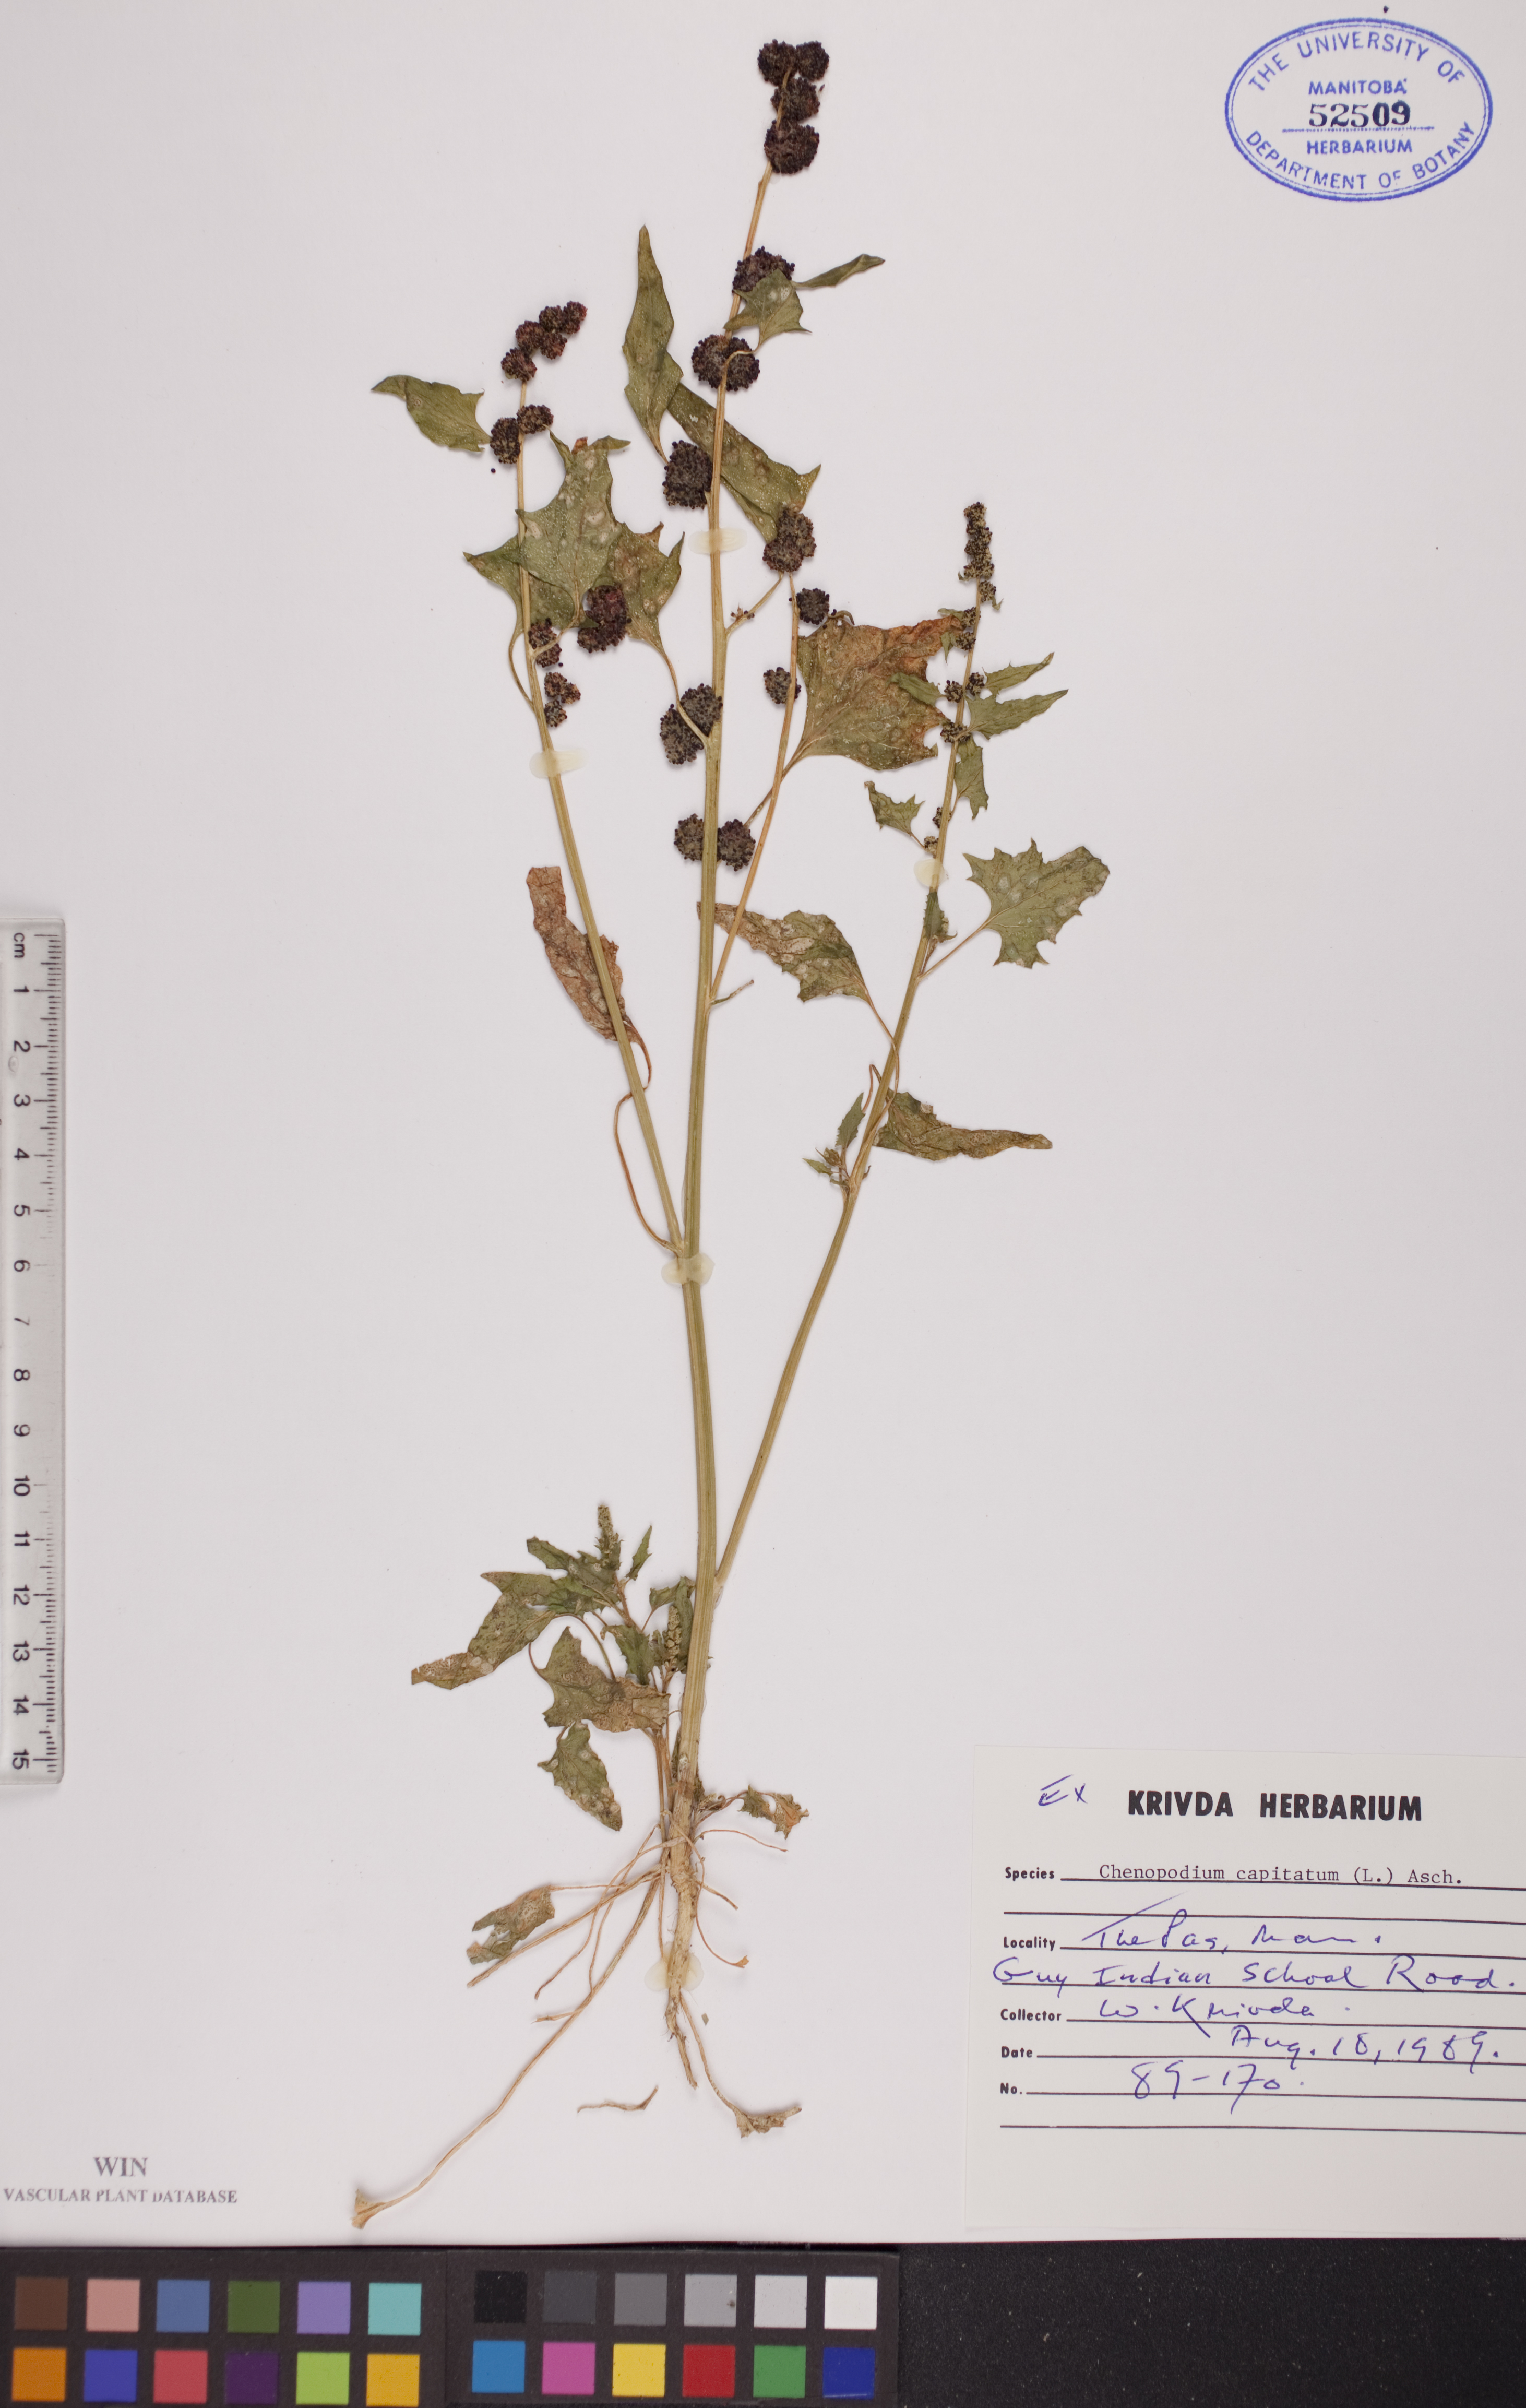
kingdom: Plantae
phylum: Tracheophyta
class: Magnoliopsida
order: Caryophyllales
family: Amaranthaceae
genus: Blitum
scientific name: Blitum capitatum
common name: Strawberry-blight
